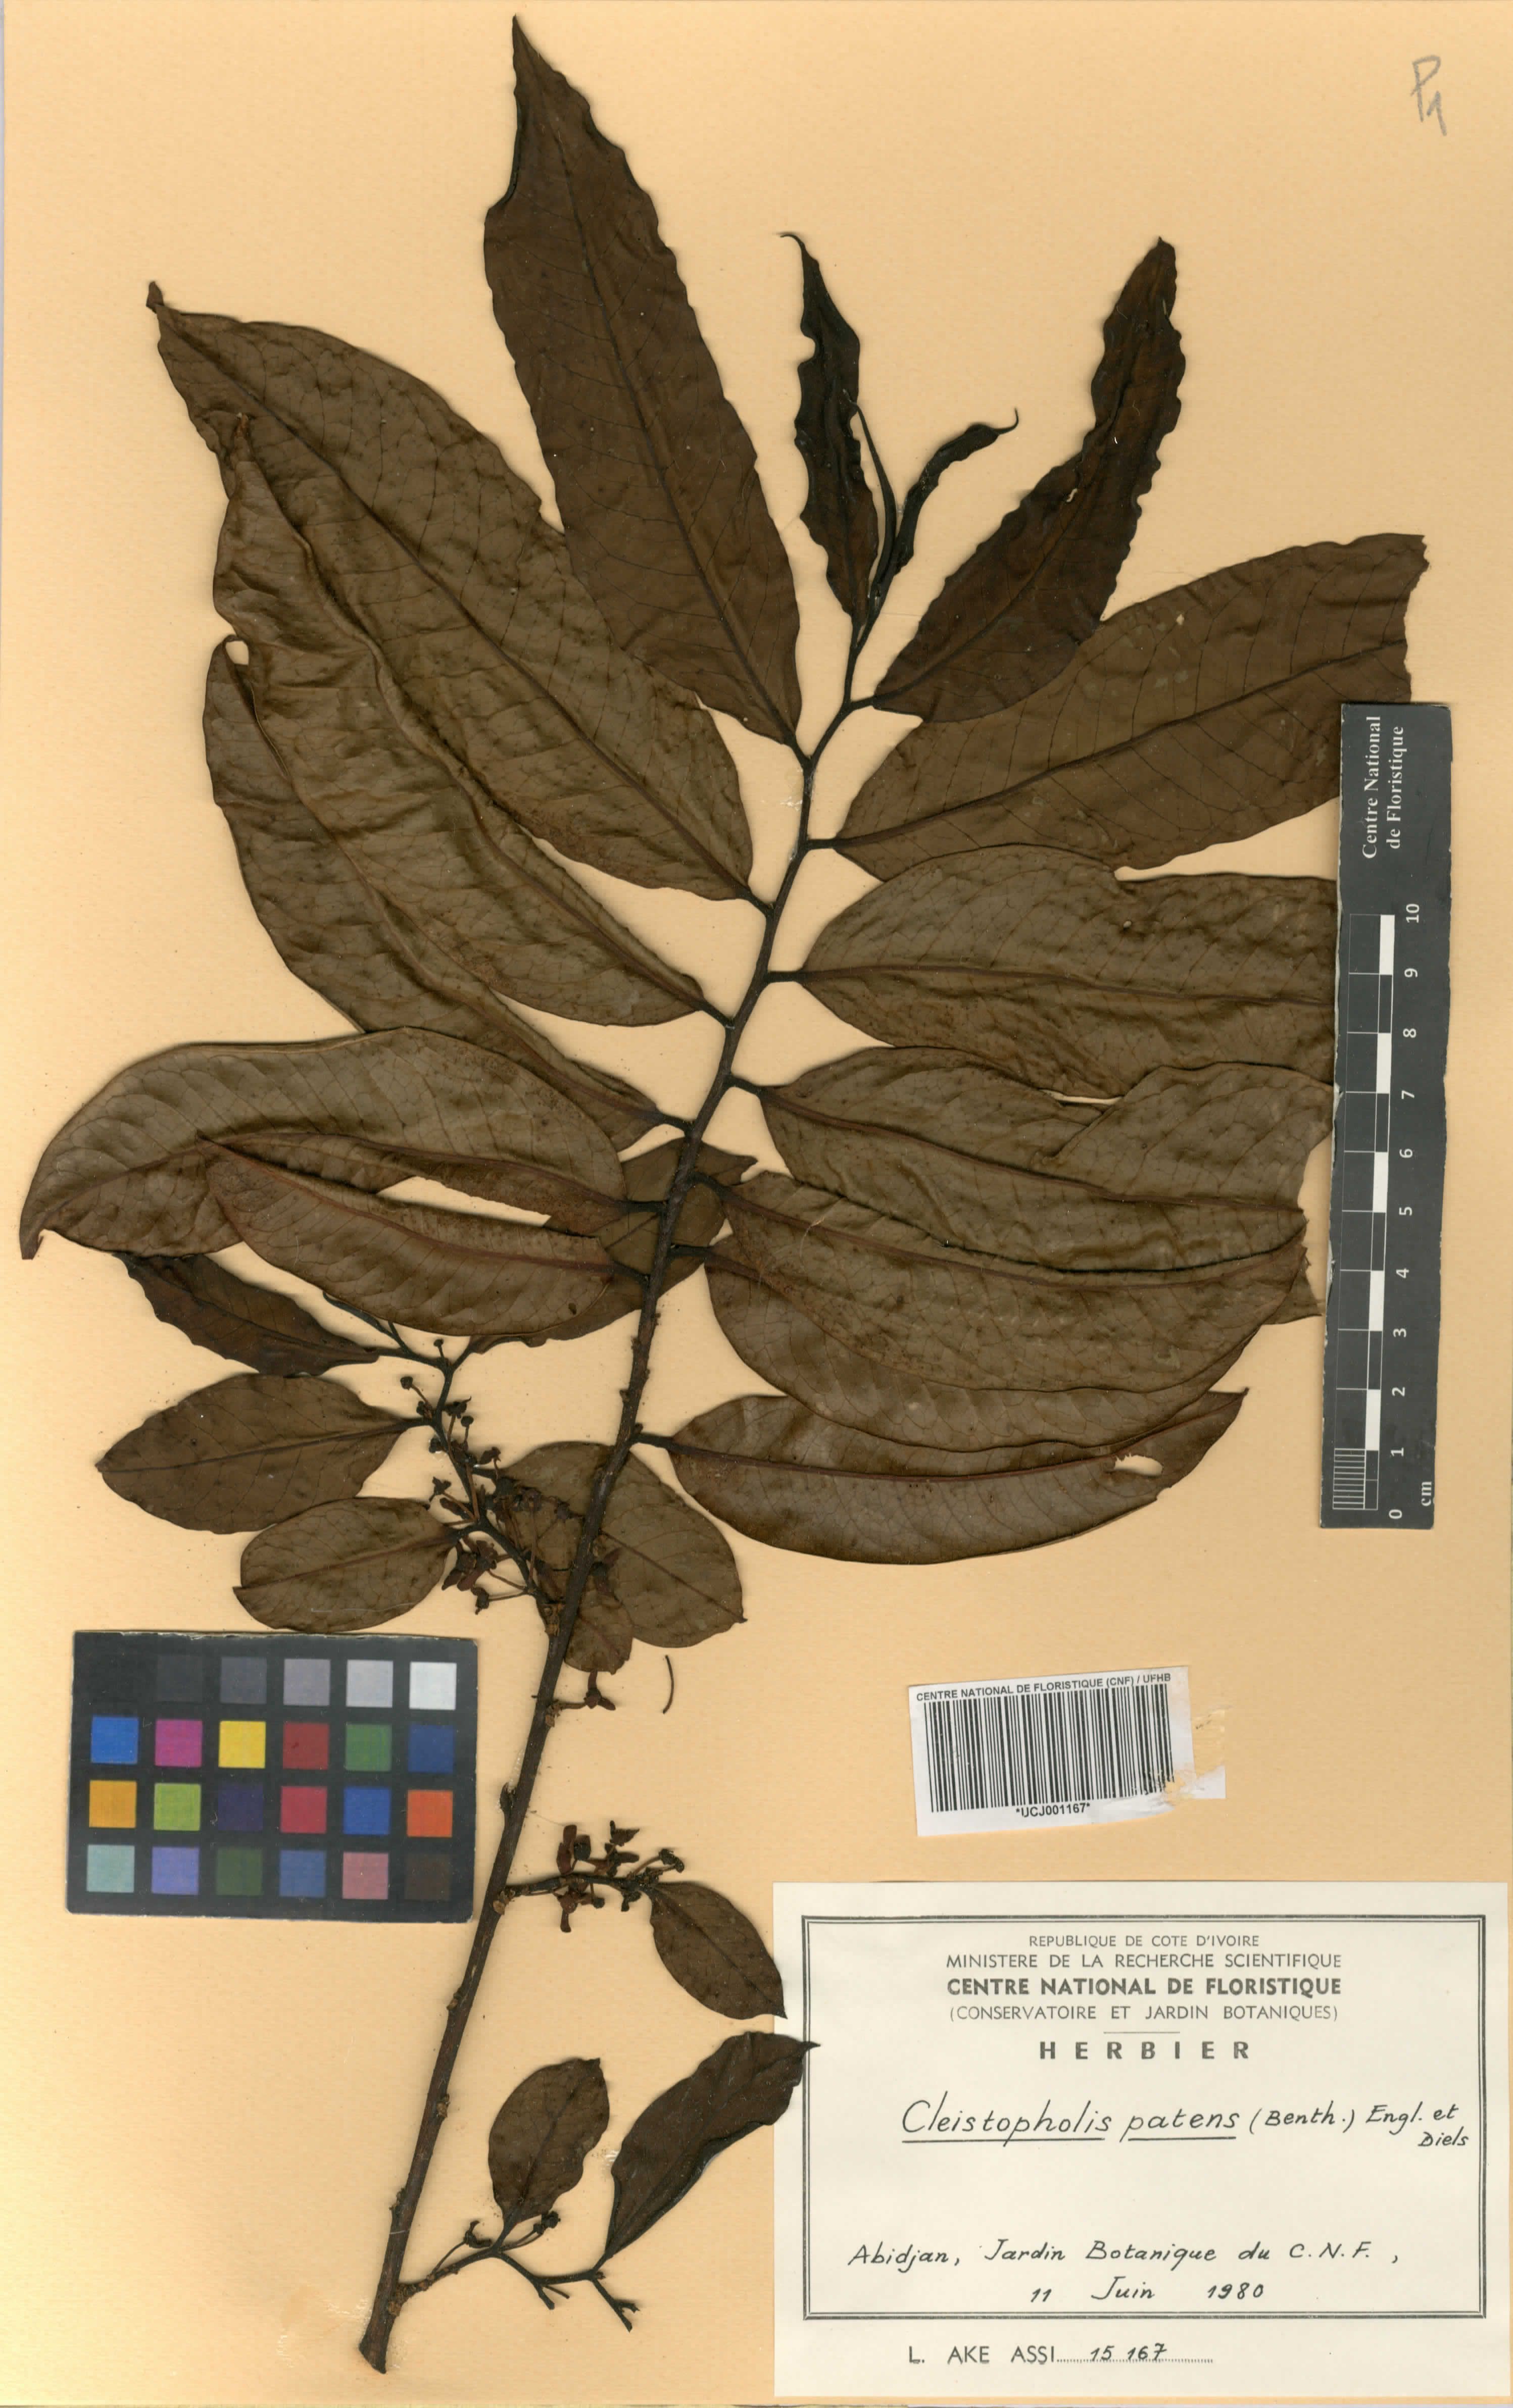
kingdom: Plantae
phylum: Tracheophyta
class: Magnoliopsida
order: Magnoliales
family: Annonaceae
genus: Cleistopholis
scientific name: Cleistopholis patens
